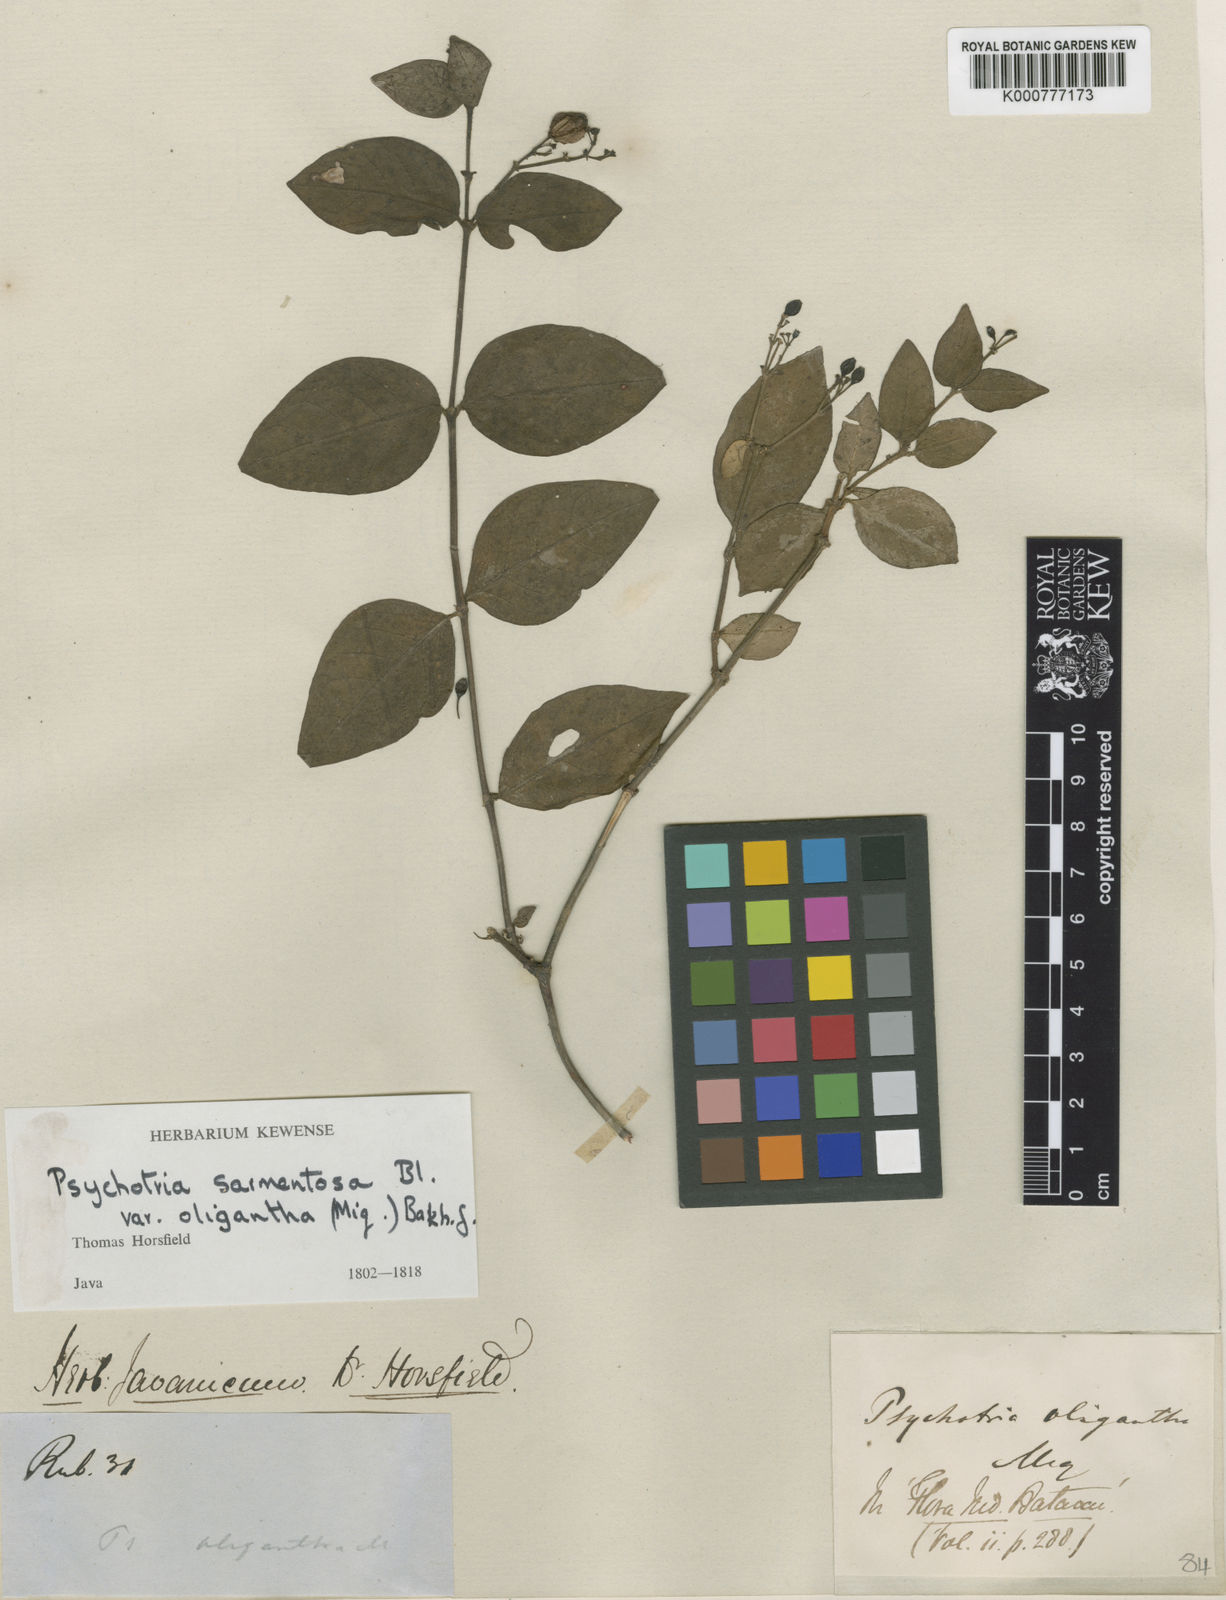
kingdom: Plantae
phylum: Tracheophyta
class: Magnoliopsida
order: Gentianales
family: Rubiaceae
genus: Psychotria
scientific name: Psychotria sarmentosa
